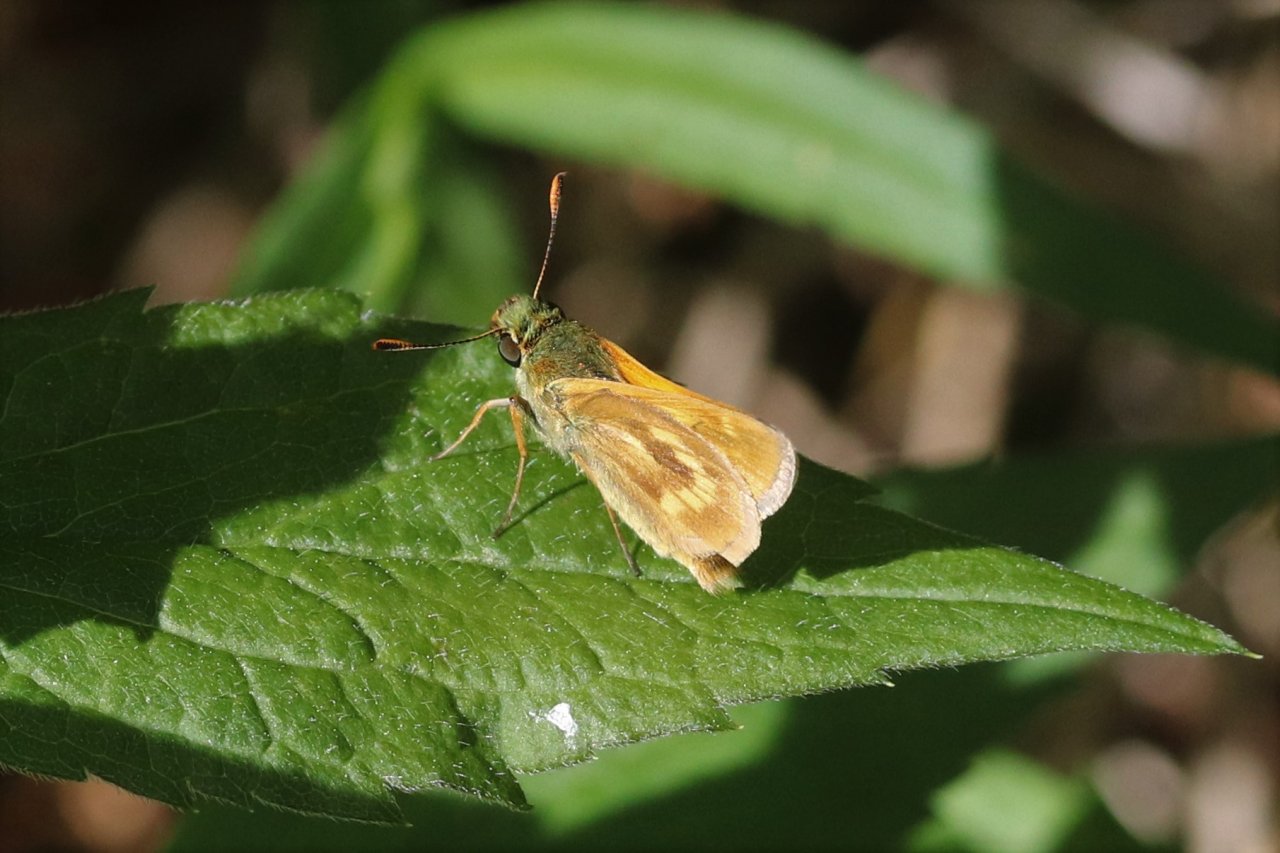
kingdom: Animalia
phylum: Arthropoda
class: Insecta
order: Lepidoptera
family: Hesperiidae
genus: Polites
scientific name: Polites
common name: Long Dash Skipper
